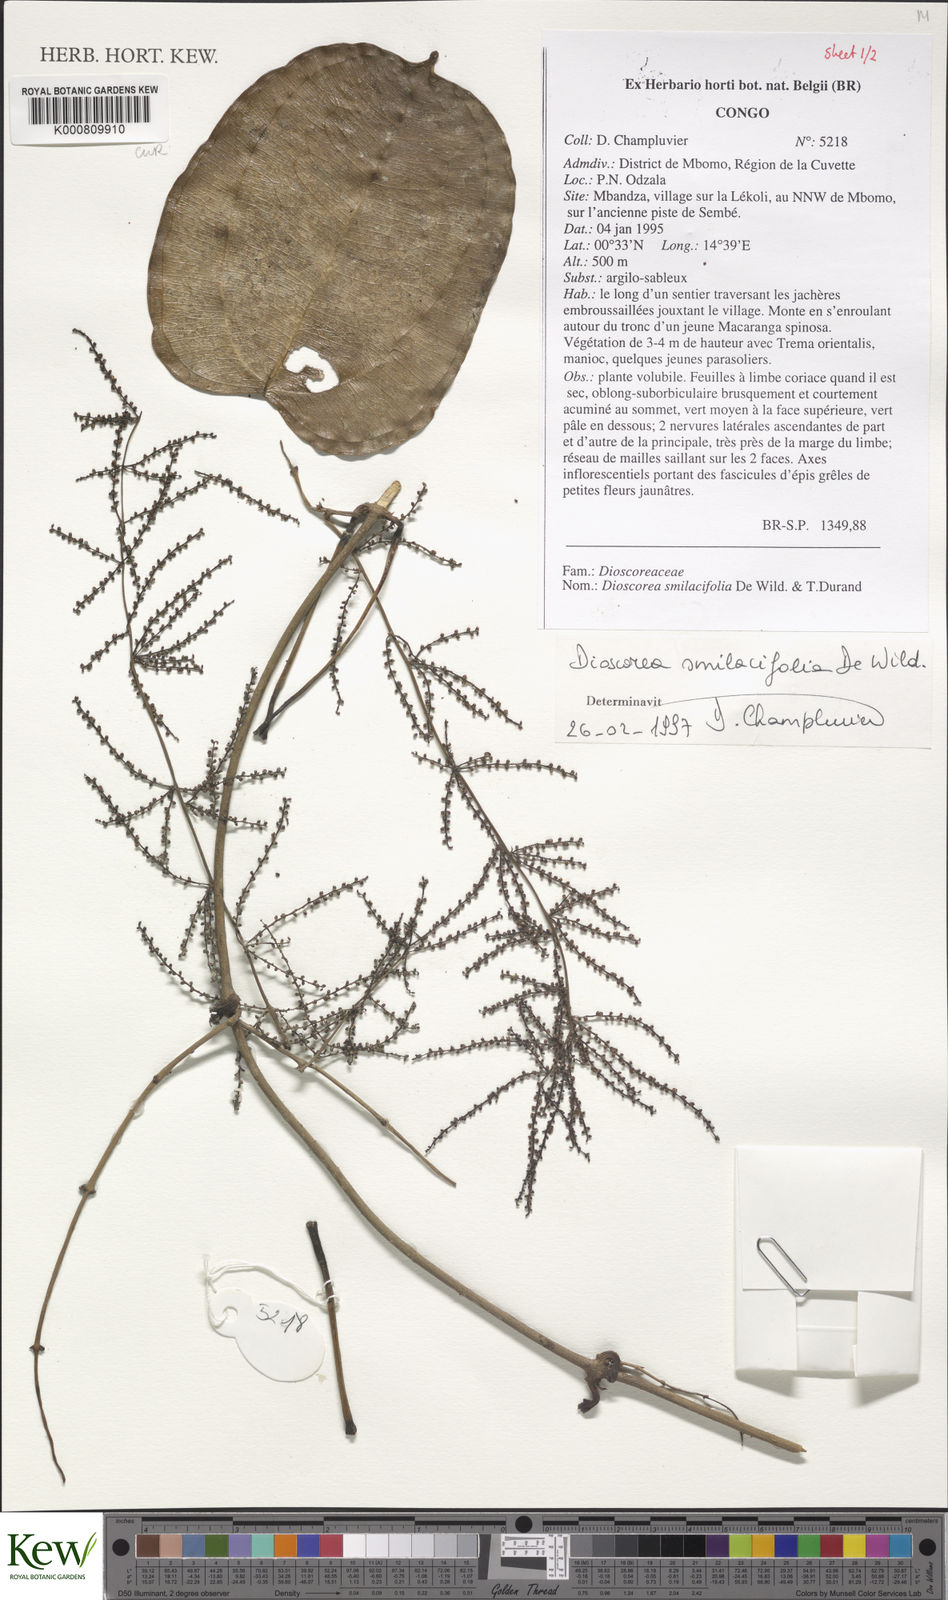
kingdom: Plantae
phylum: Tracheophyta
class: Liliopsida
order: Dioscoreales
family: Dioscoreaceae
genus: Dioscorea
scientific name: Dioscorea smilacifolia
